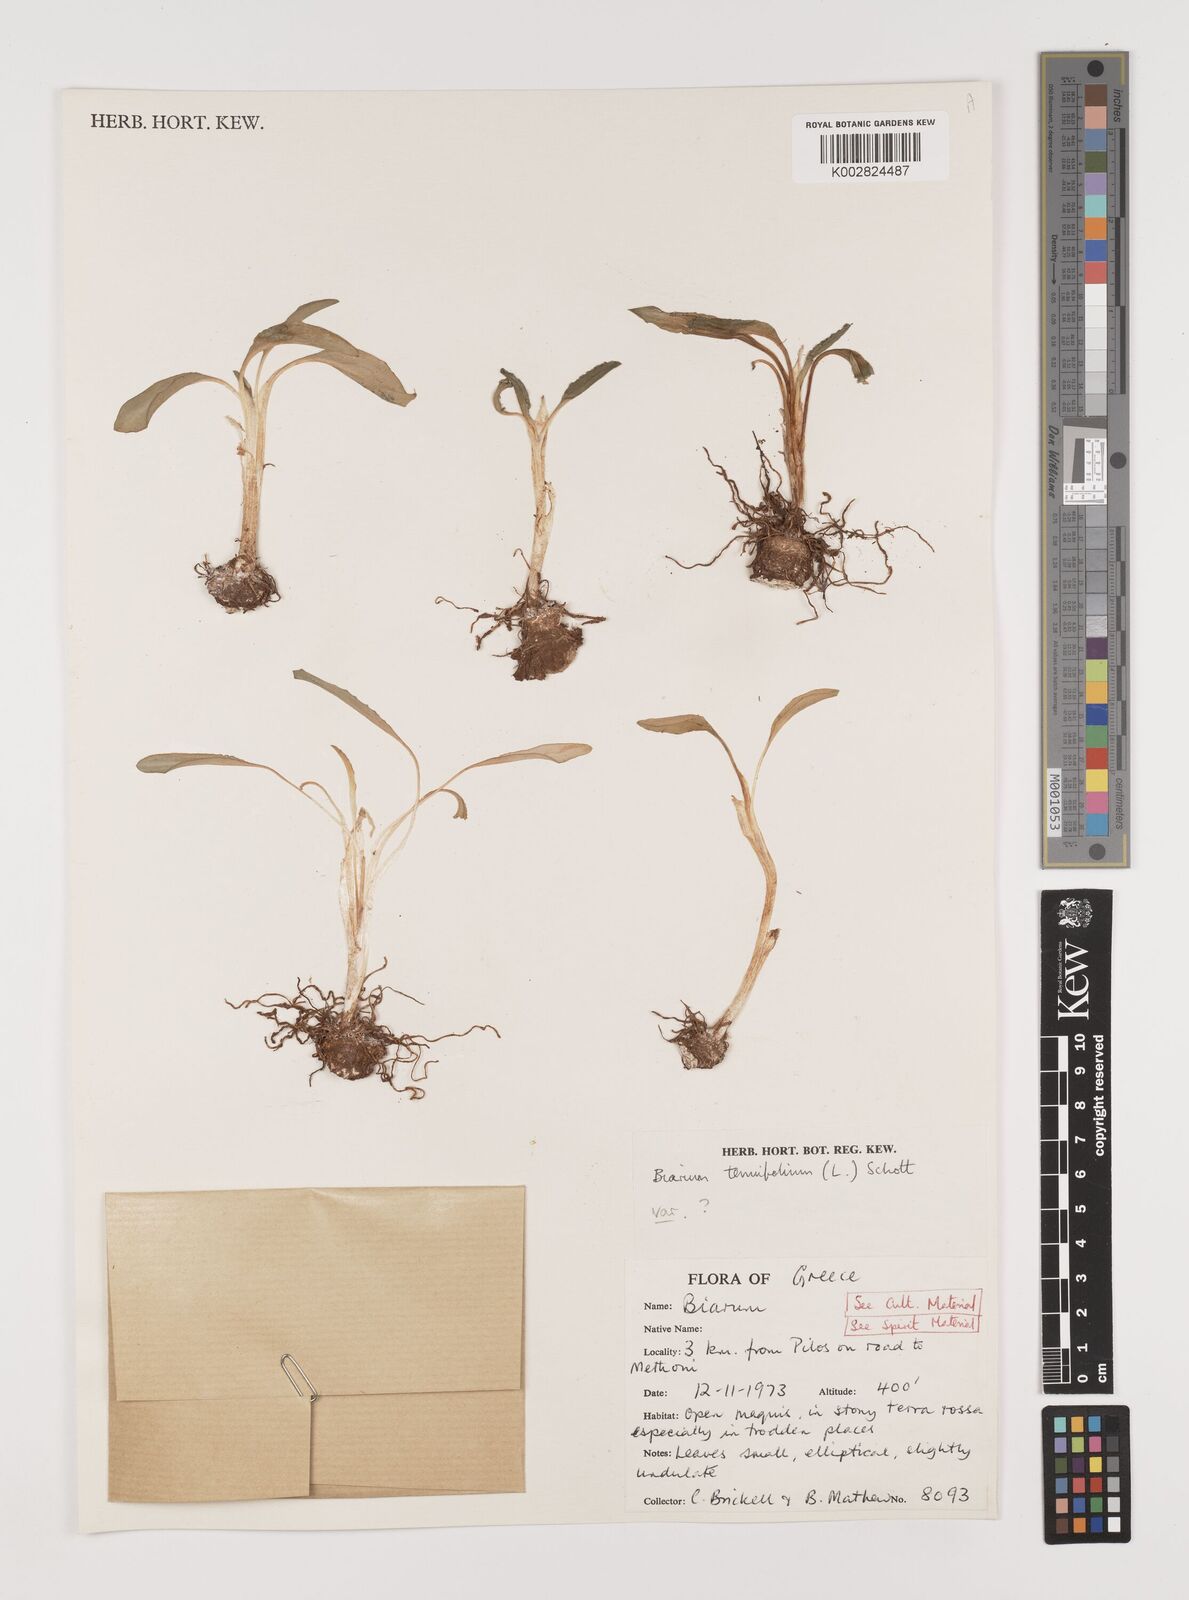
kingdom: Plantae
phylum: Tracheophyta
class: Liliopsida
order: Alismatales
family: Araceae
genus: Biarum
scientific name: Biarum tenuifolium
